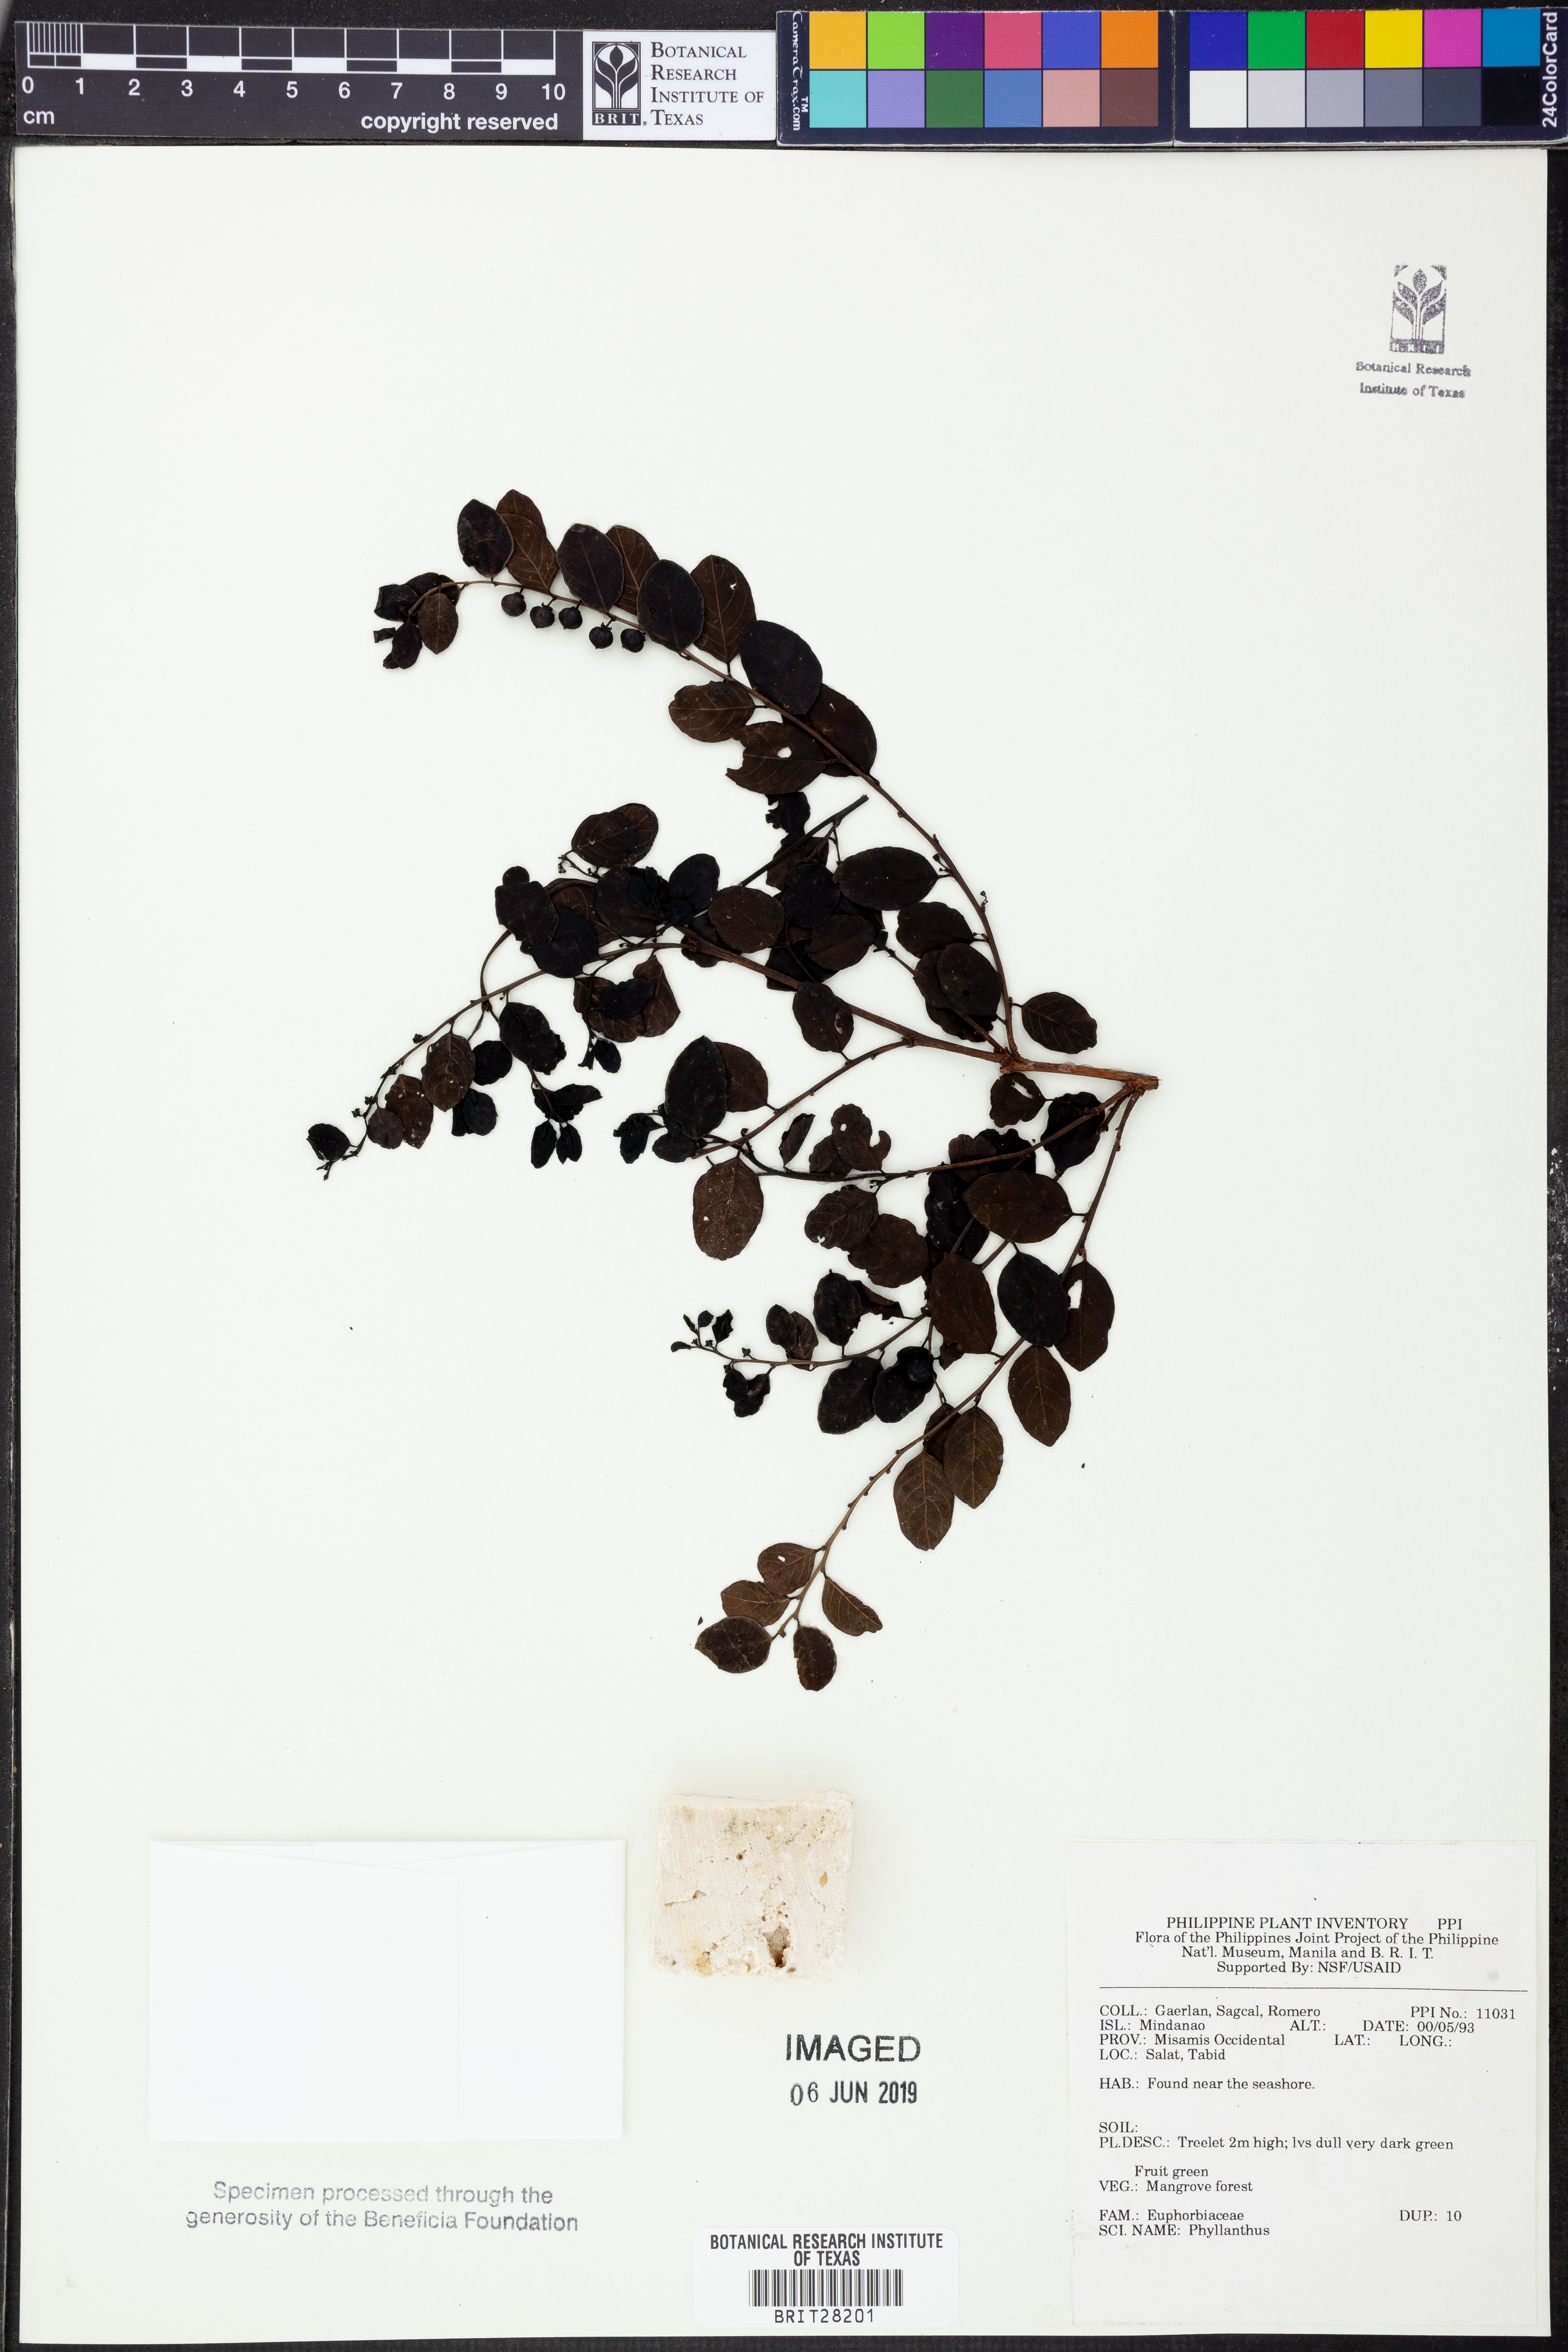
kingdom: Plantae
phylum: Tracheophyta
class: Magnoliopsida
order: Malpighiales
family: Phyllanthaceae
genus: Phyllanthus
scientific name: Phyllanthus
